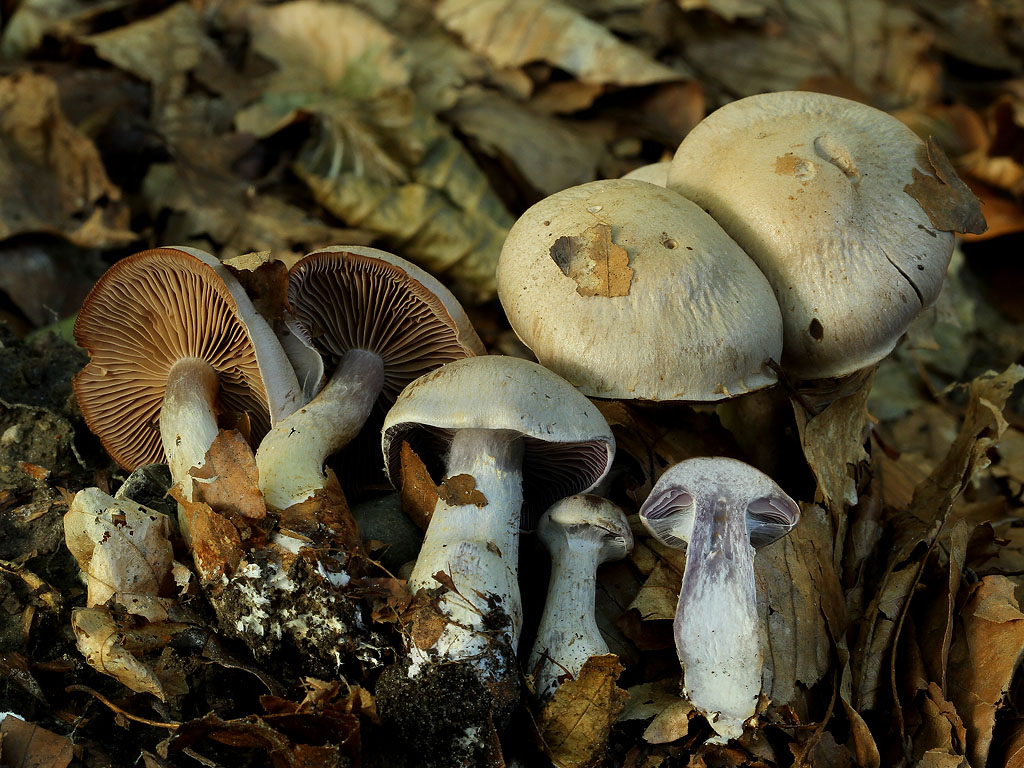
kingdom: Fungi
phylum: Basidiomycota
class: Agaricomycetes
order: Agaricales
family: Cortinariaceae
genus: Cortinarius
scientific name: Cortinarius pelerinii
